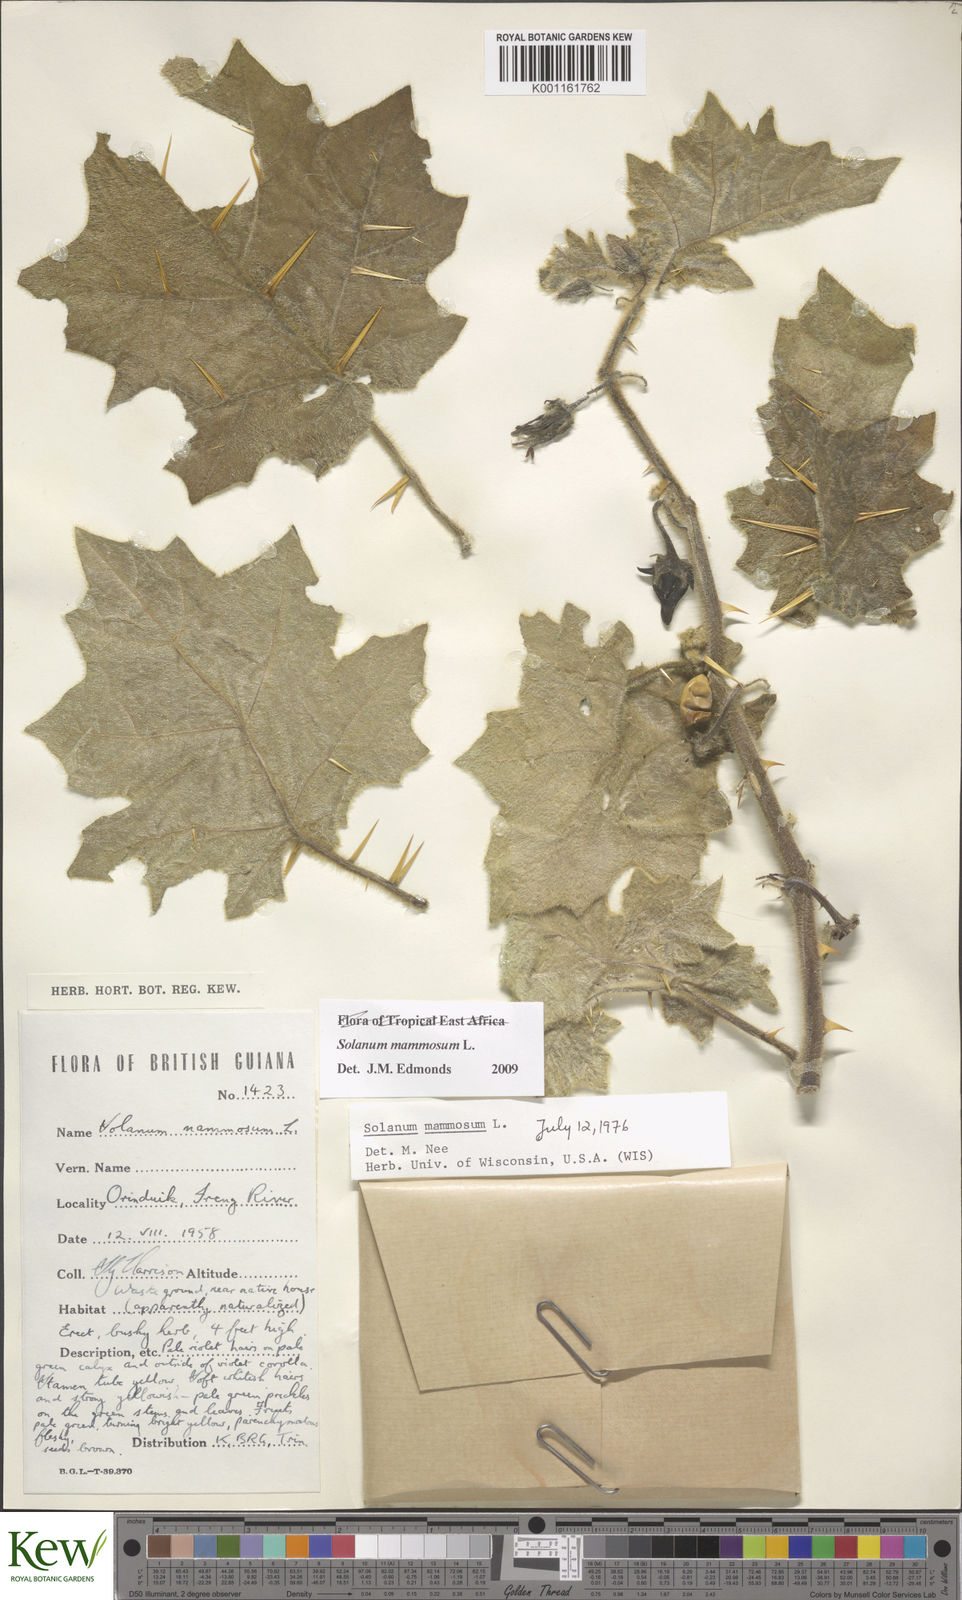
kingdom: Plantae
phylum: Tracheophyta
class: Magnoliopsida
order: Solanales
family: Solanaceae
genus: Solanum
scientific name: Solanum mammosum
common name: Nipple fruit
